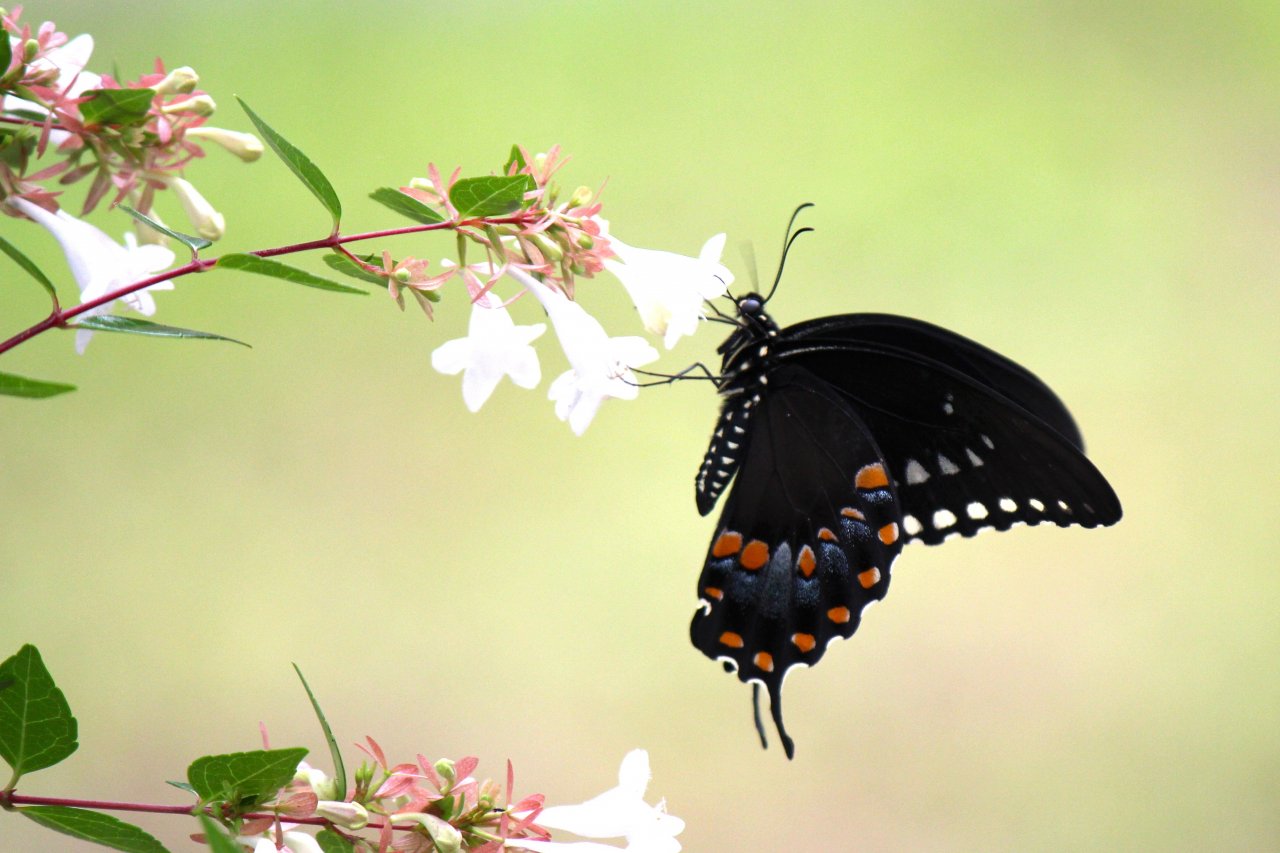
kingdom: Animalia
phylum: Arthropoda
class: Insecta
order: Lepidoptera
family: Papilionidae
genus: Pterourus
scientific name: Pterourus troilus
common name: Spicebush Swallowtail
